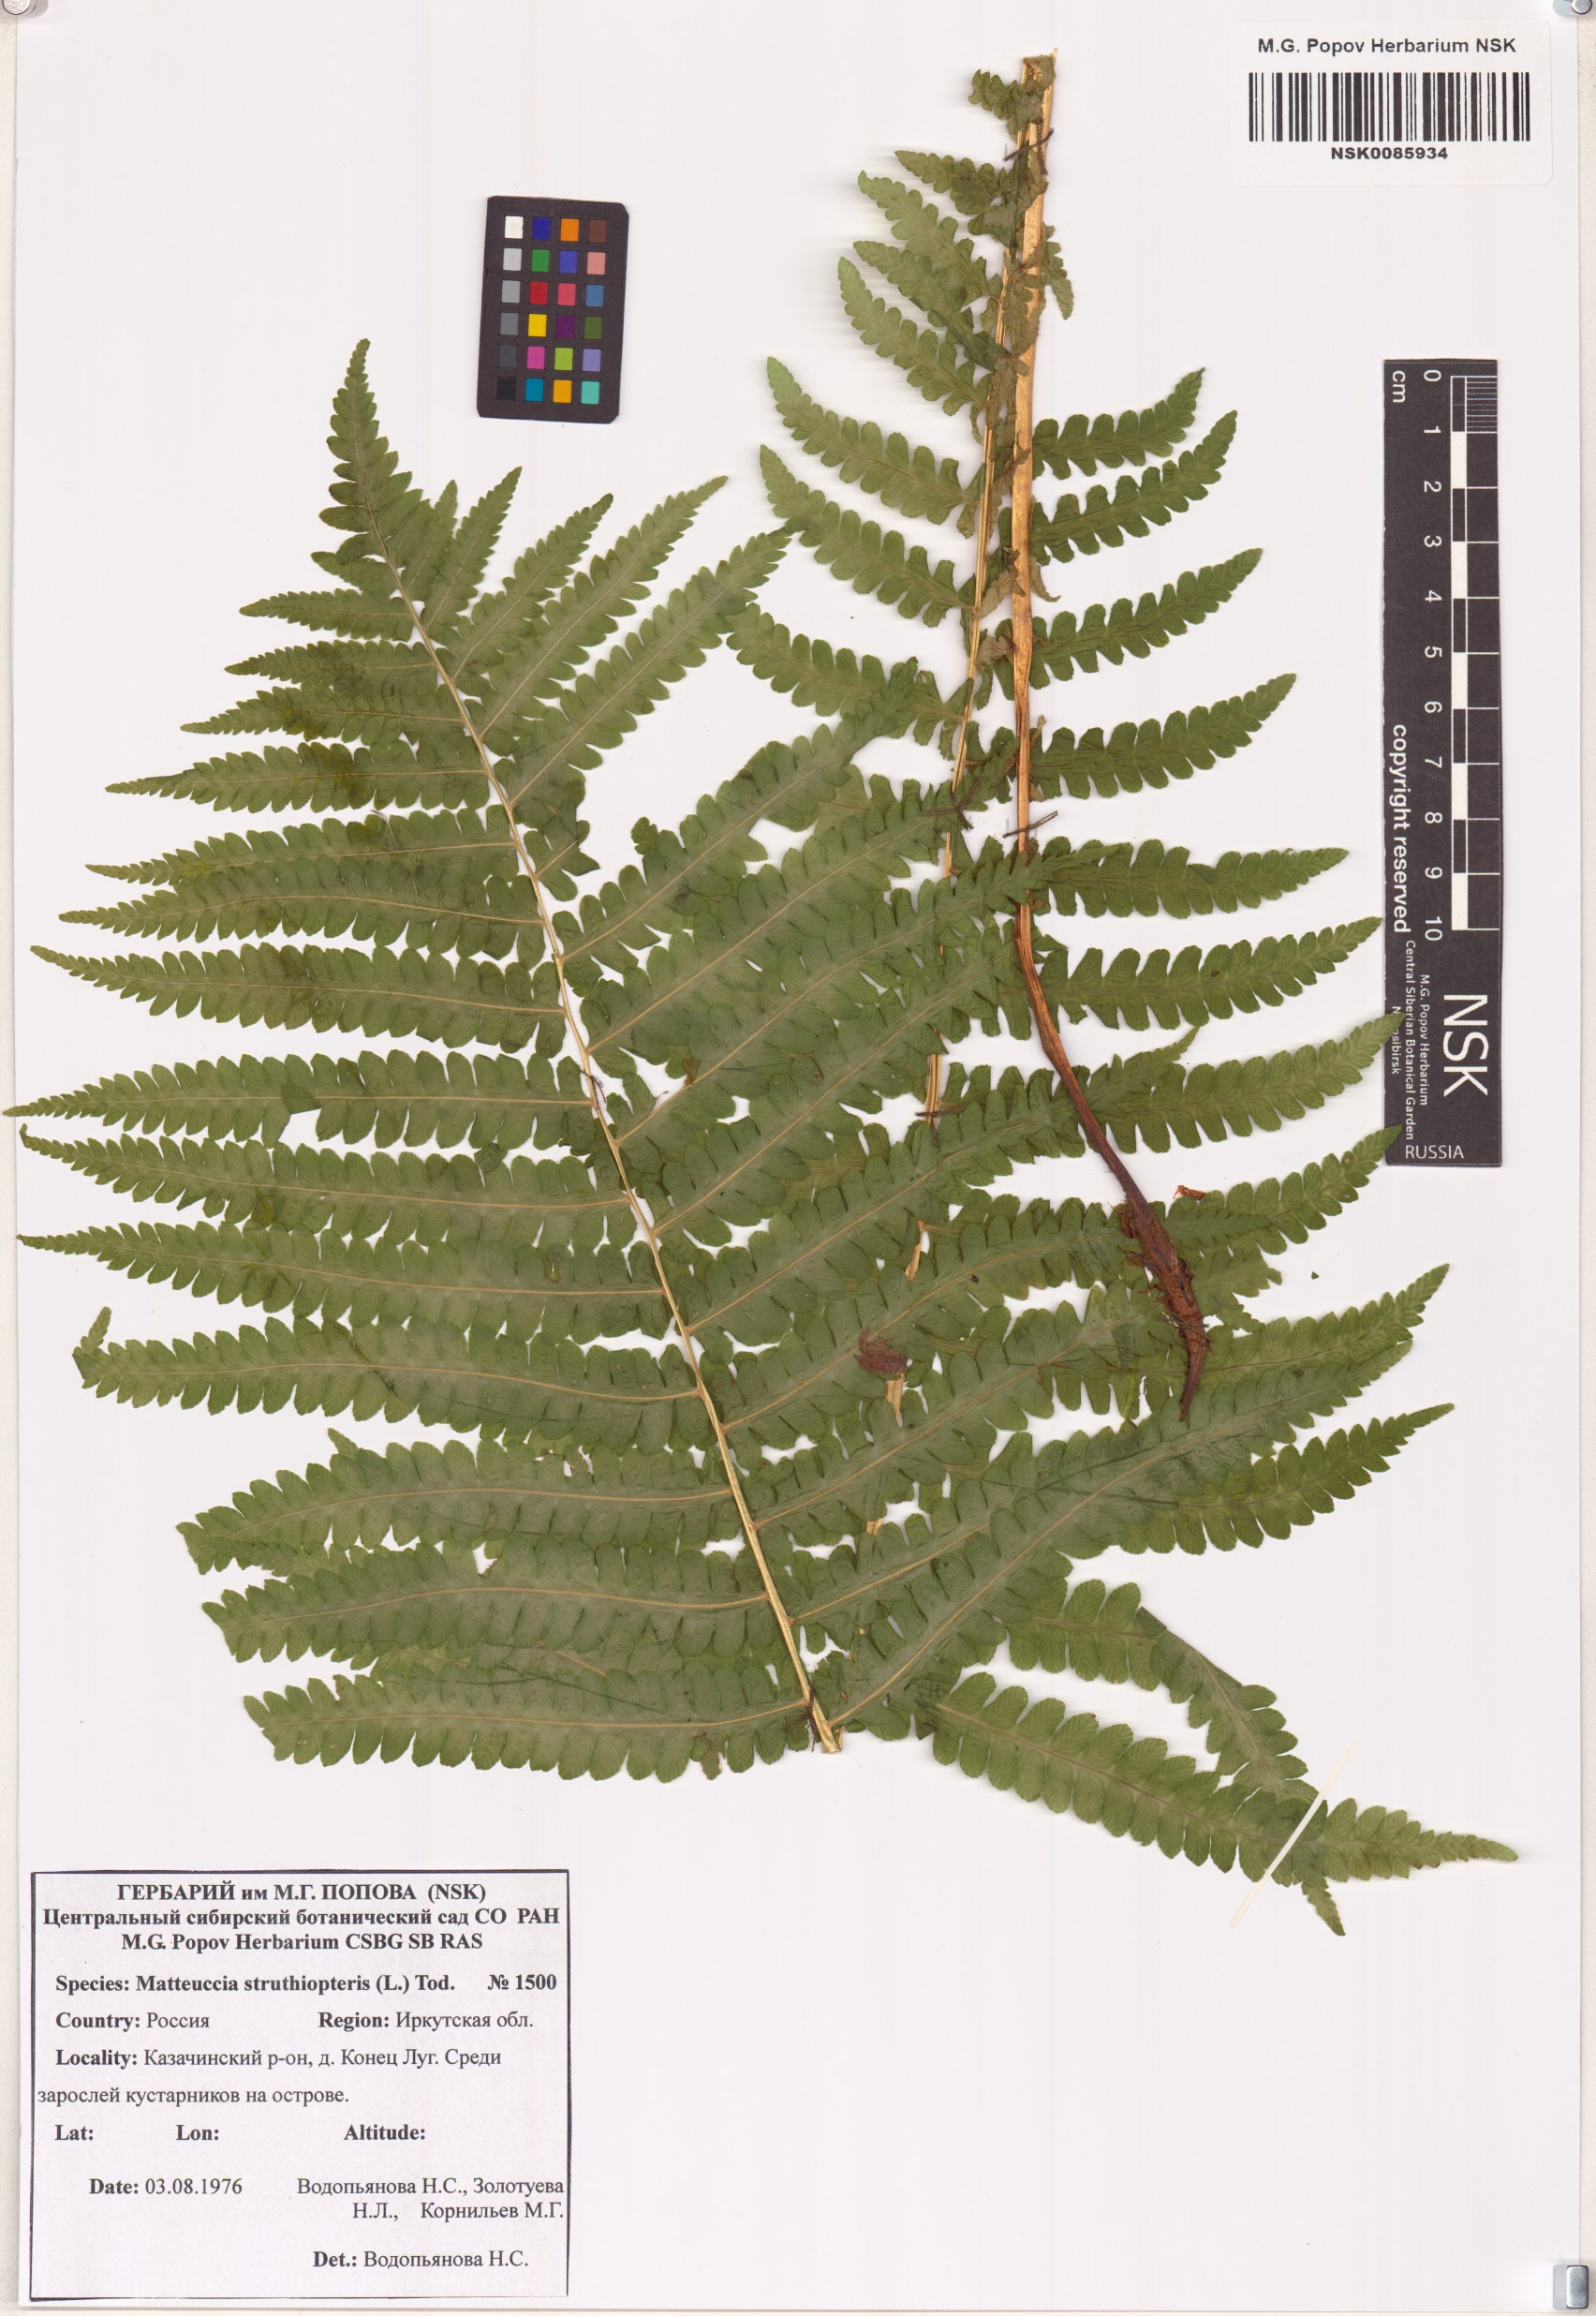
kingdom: Plantae
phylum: Tracheophyta
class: Polypodiopsida
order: Polypodiales
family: Onocleaceae
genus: Matteuccia
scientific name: Matteuccia struthiopteris
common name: Ostrich fern
